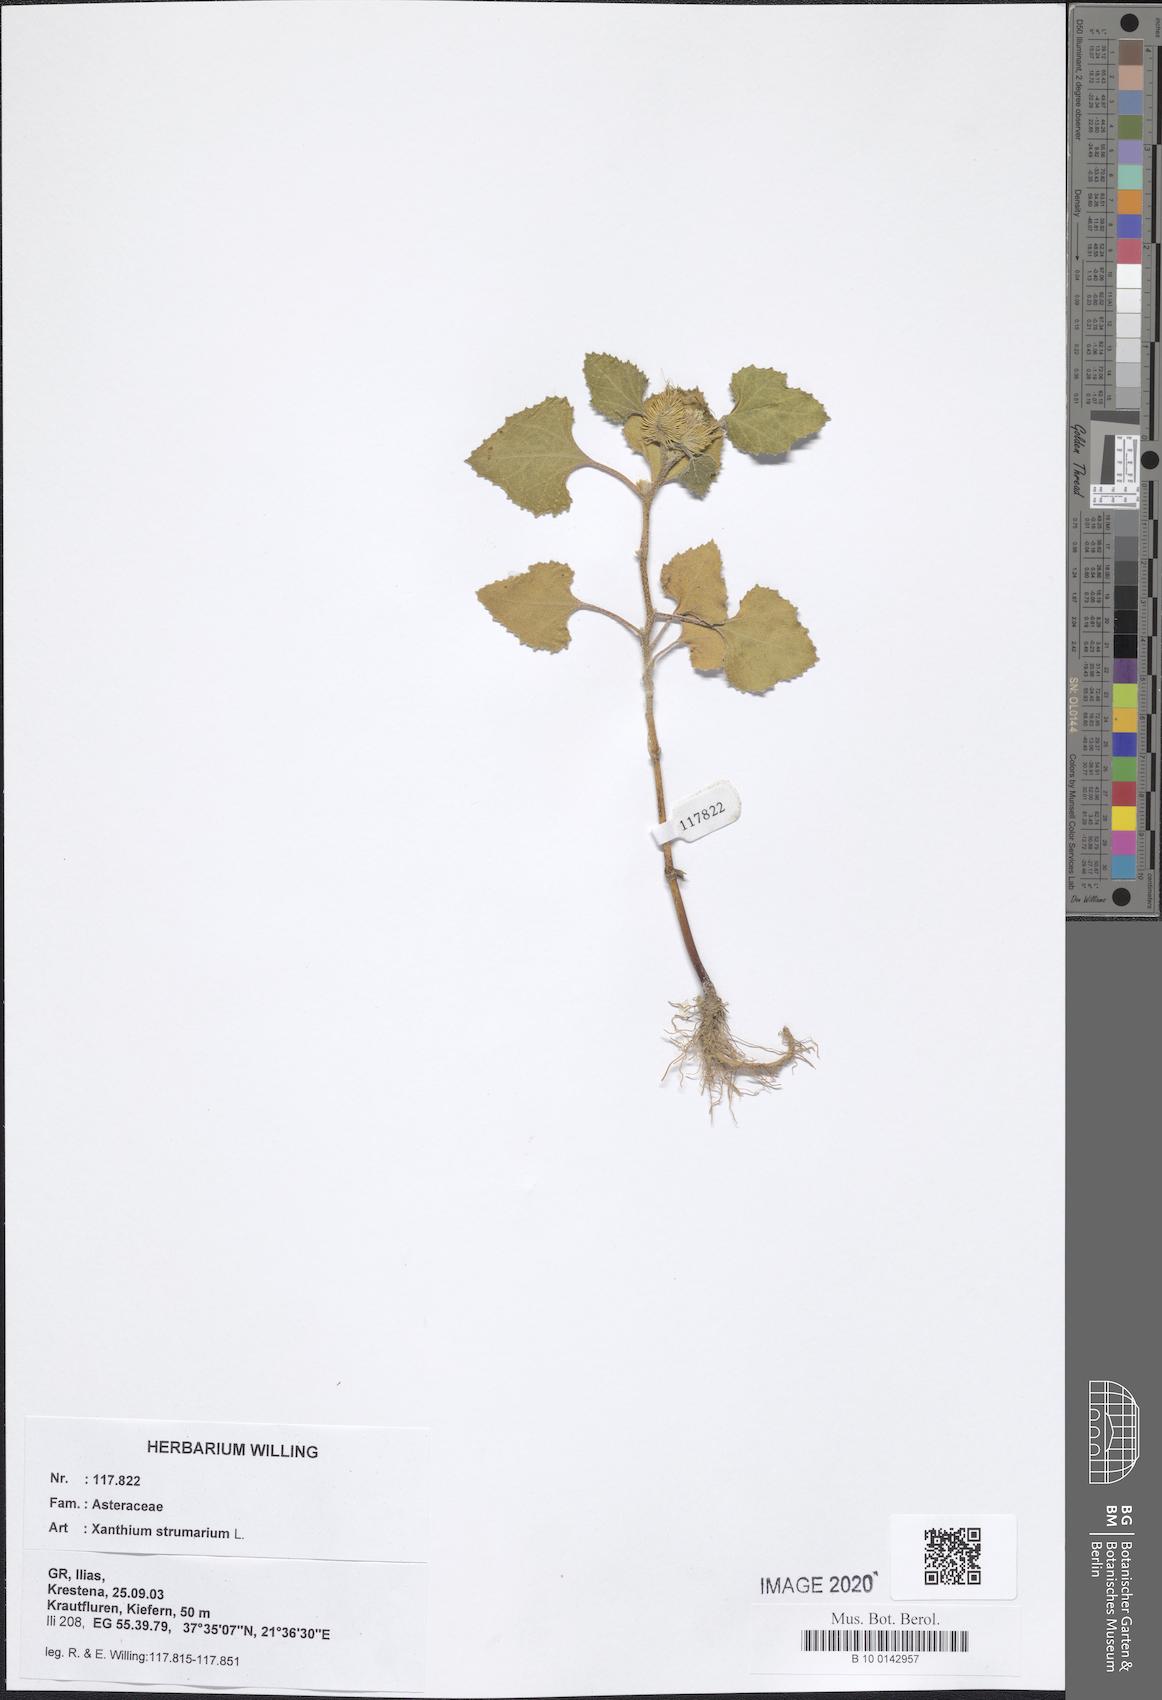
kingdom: Plantae
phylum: Tracheophyta
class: Magnoliopsida
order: Asterales
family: Asteraceae
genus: Xanthium
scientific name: Xanthium strumarium
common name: Rough cocklebur
